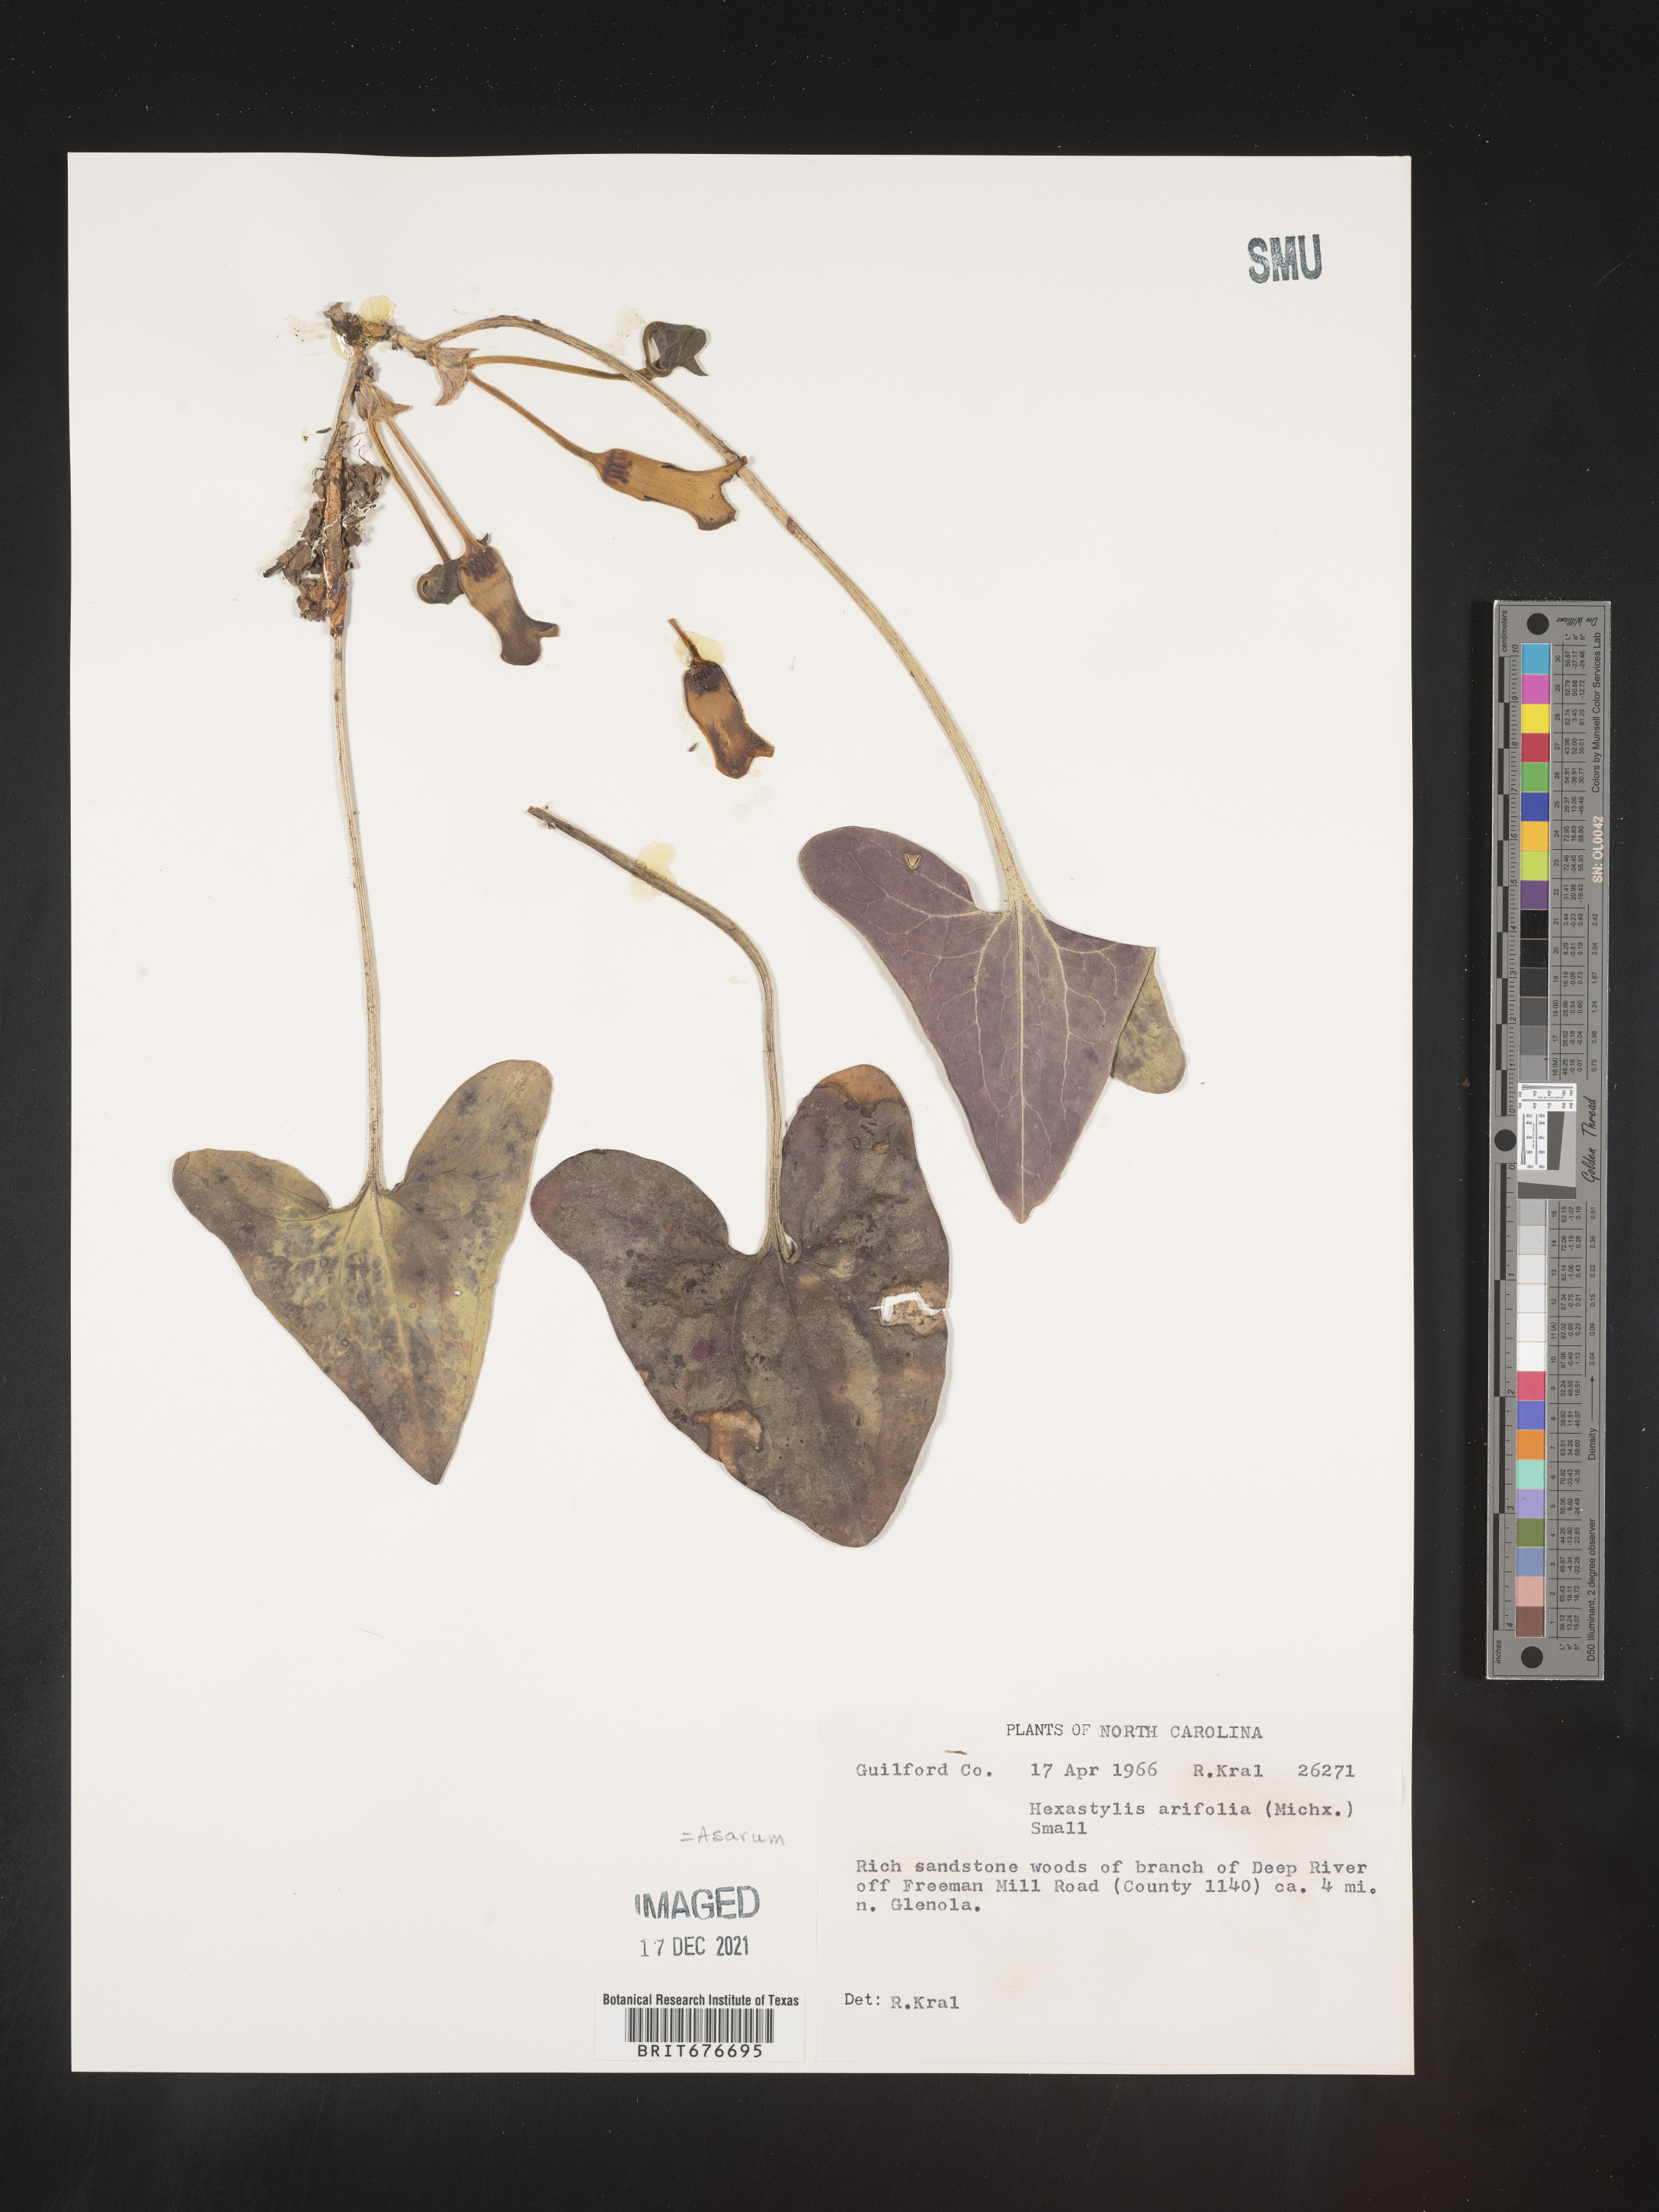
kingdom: Plantae
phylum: Tracheophyta
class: Magnoliopsida
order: Piperales
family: Aristolochiaceae
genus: Hexastylis
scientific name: Hexastylis arifolia
